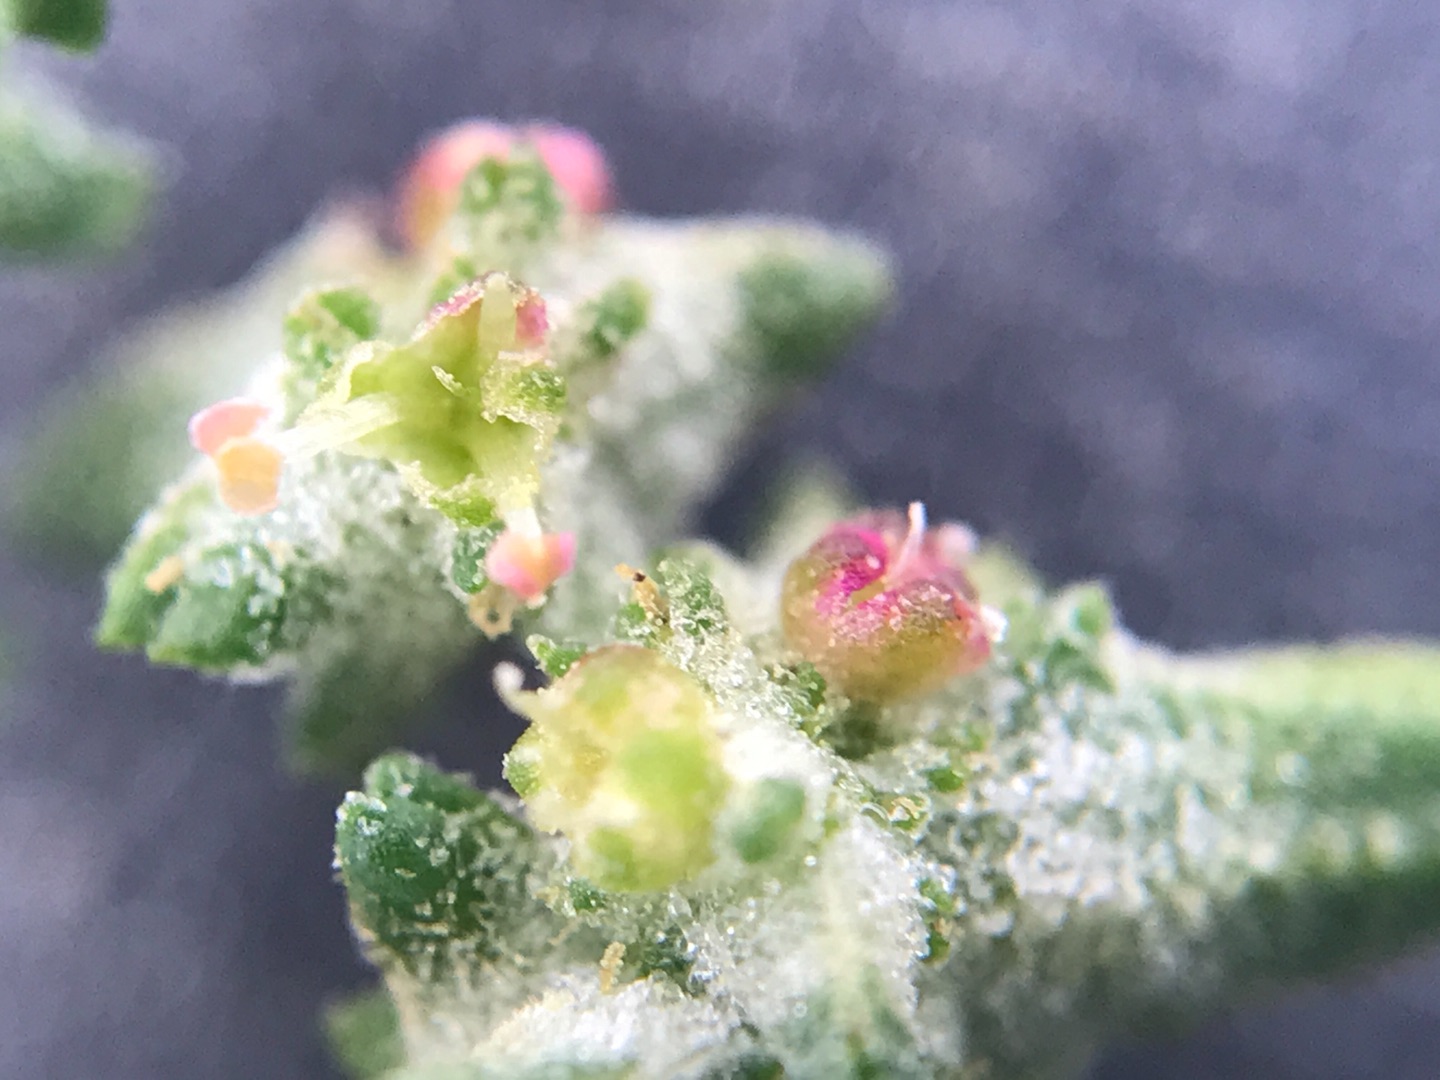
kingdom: Plantae
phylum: Tracheophyta
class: Magnoliopsida
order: Caryophyllales
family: Amaranthaceae
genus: Atriplex
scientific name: Atriplex patula
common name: Svine-mælde
